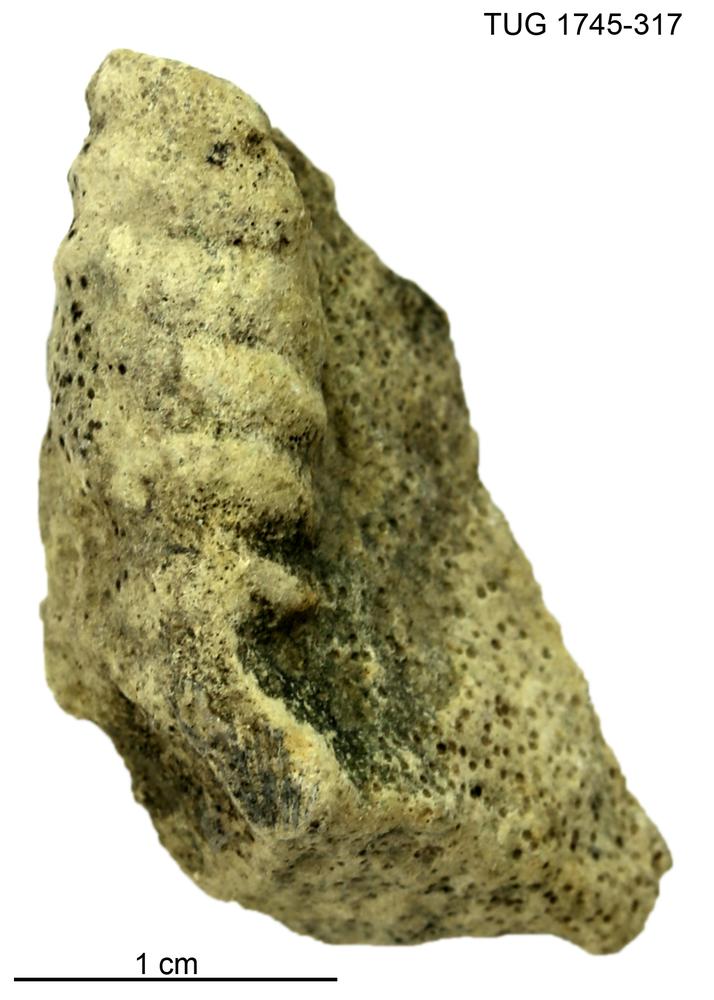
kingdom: Animalia
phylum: Mollusca
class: Cephalopoda
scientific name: Cephalopoda
